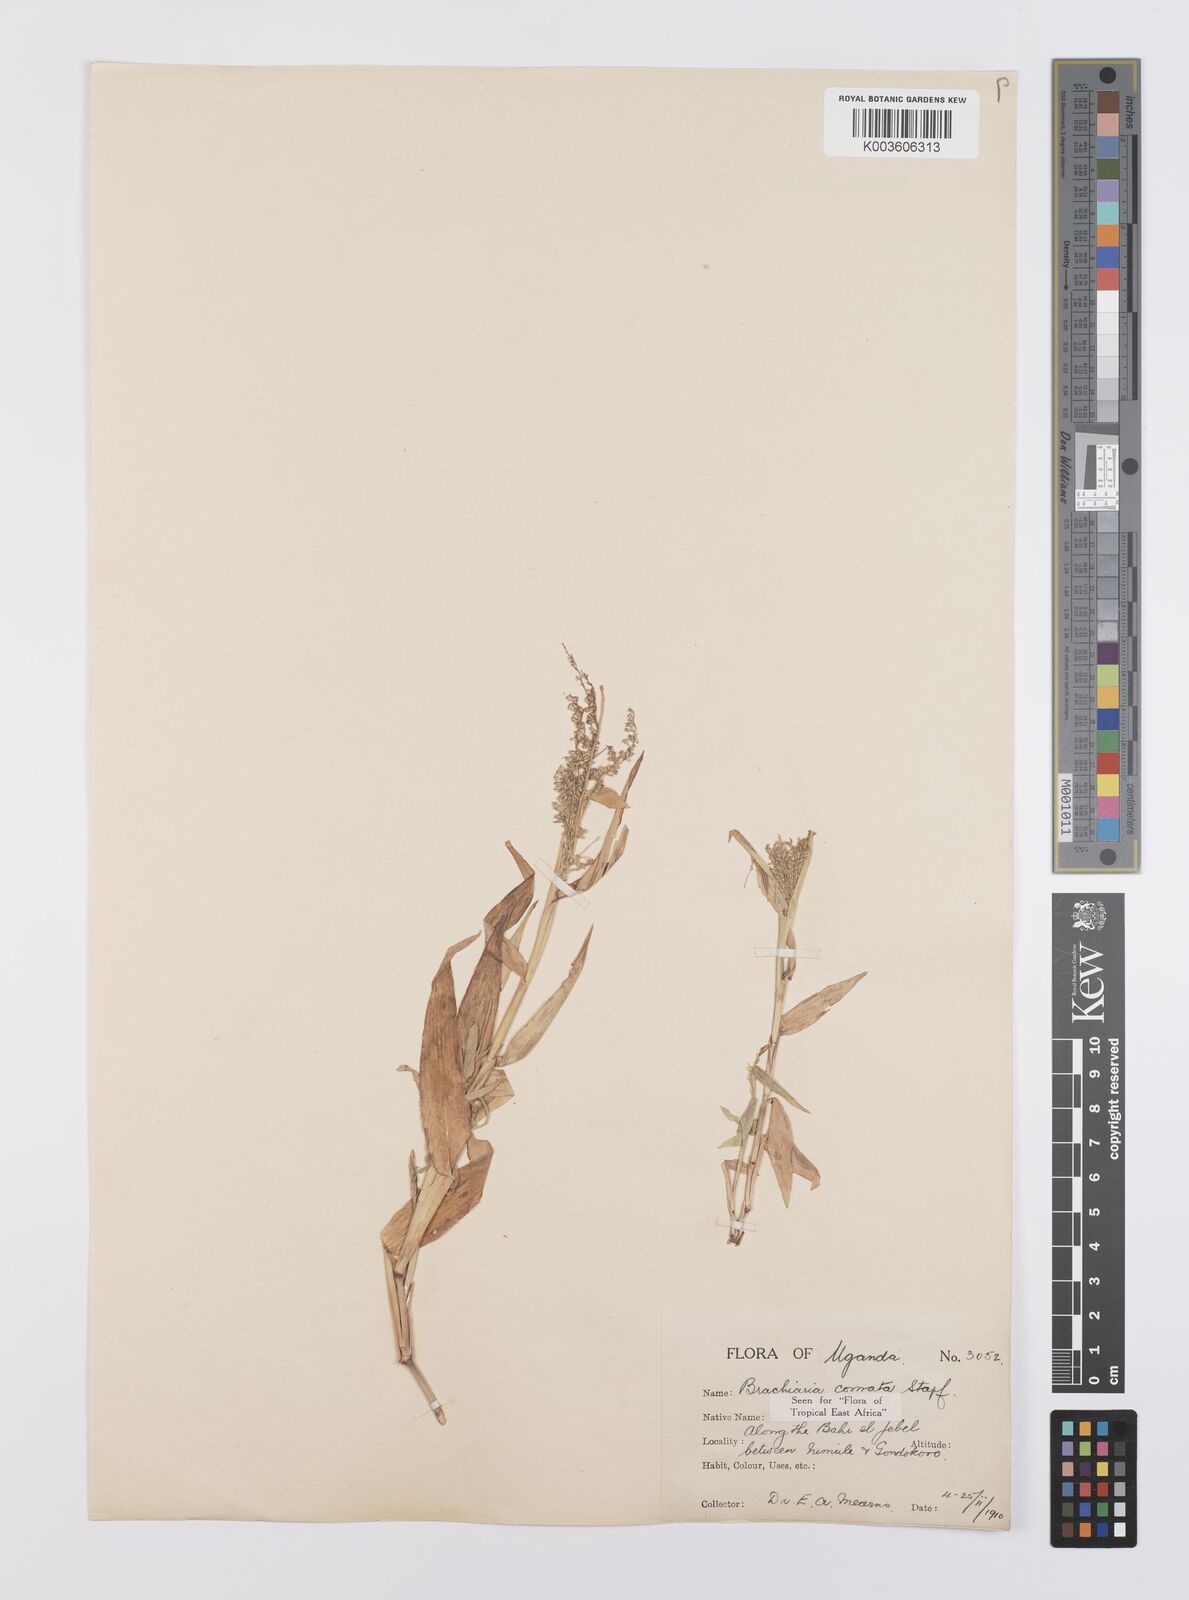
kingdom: Plantae
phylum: Tracheophyta
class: Liliopsida
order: Poales
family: Poaceae
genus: Urochloa
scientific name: Urochloa comata
